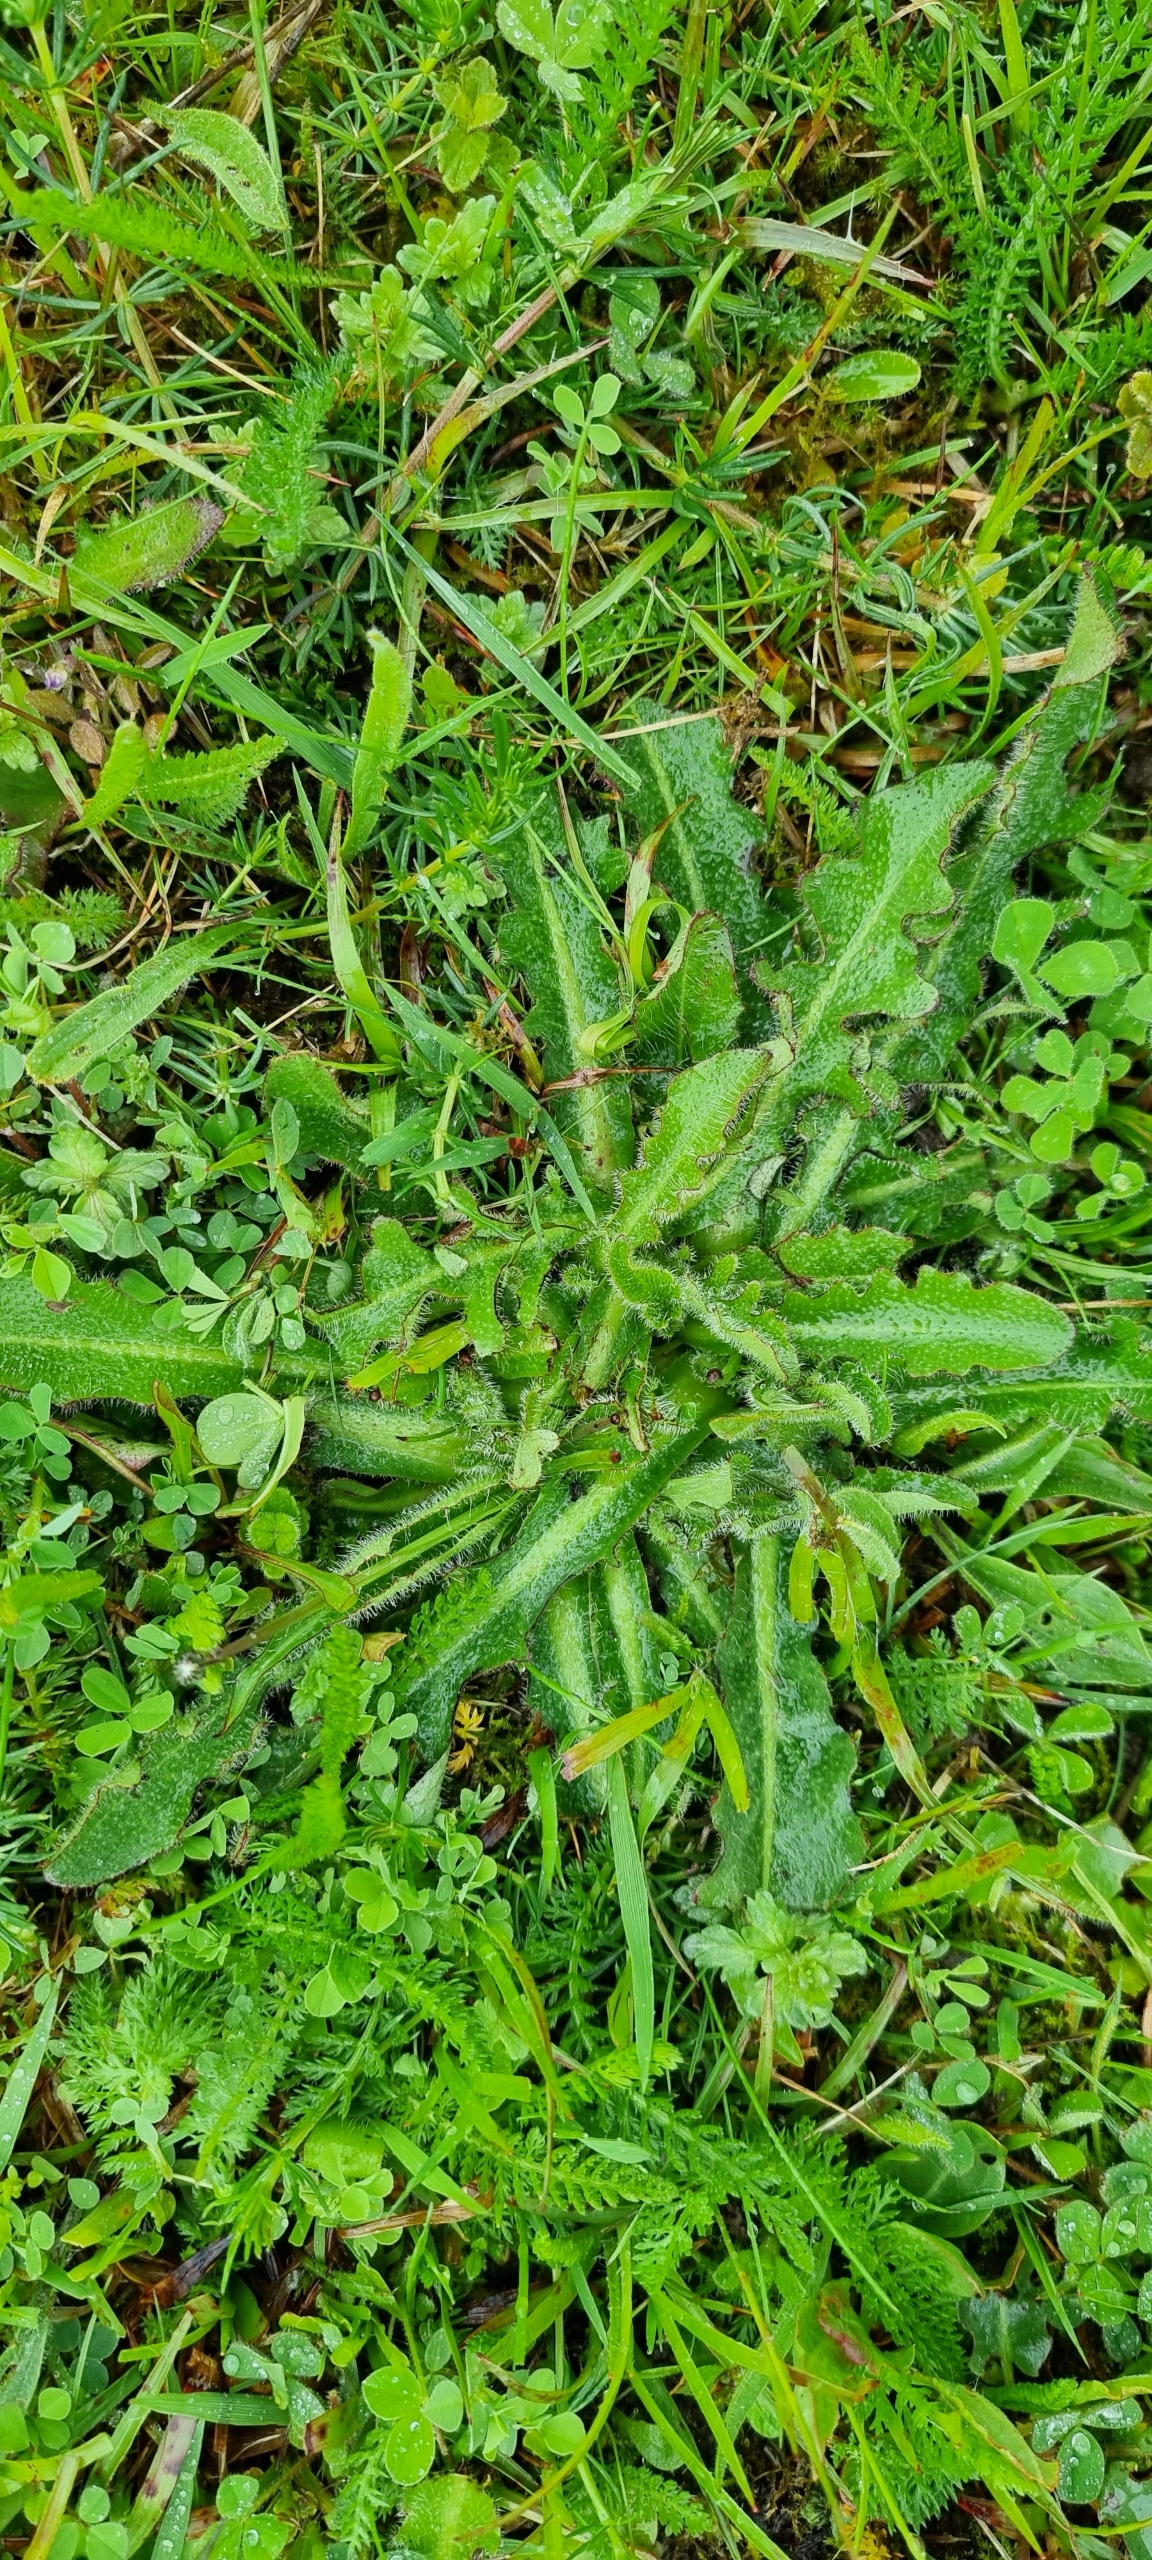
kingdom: Plantae
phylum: Tracheophyta
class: Magnoliopsida
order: Asterales
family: Asteraceae
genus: Hypochaeris
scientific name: Hypochaeris radicata
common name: Almindelig kongepen
